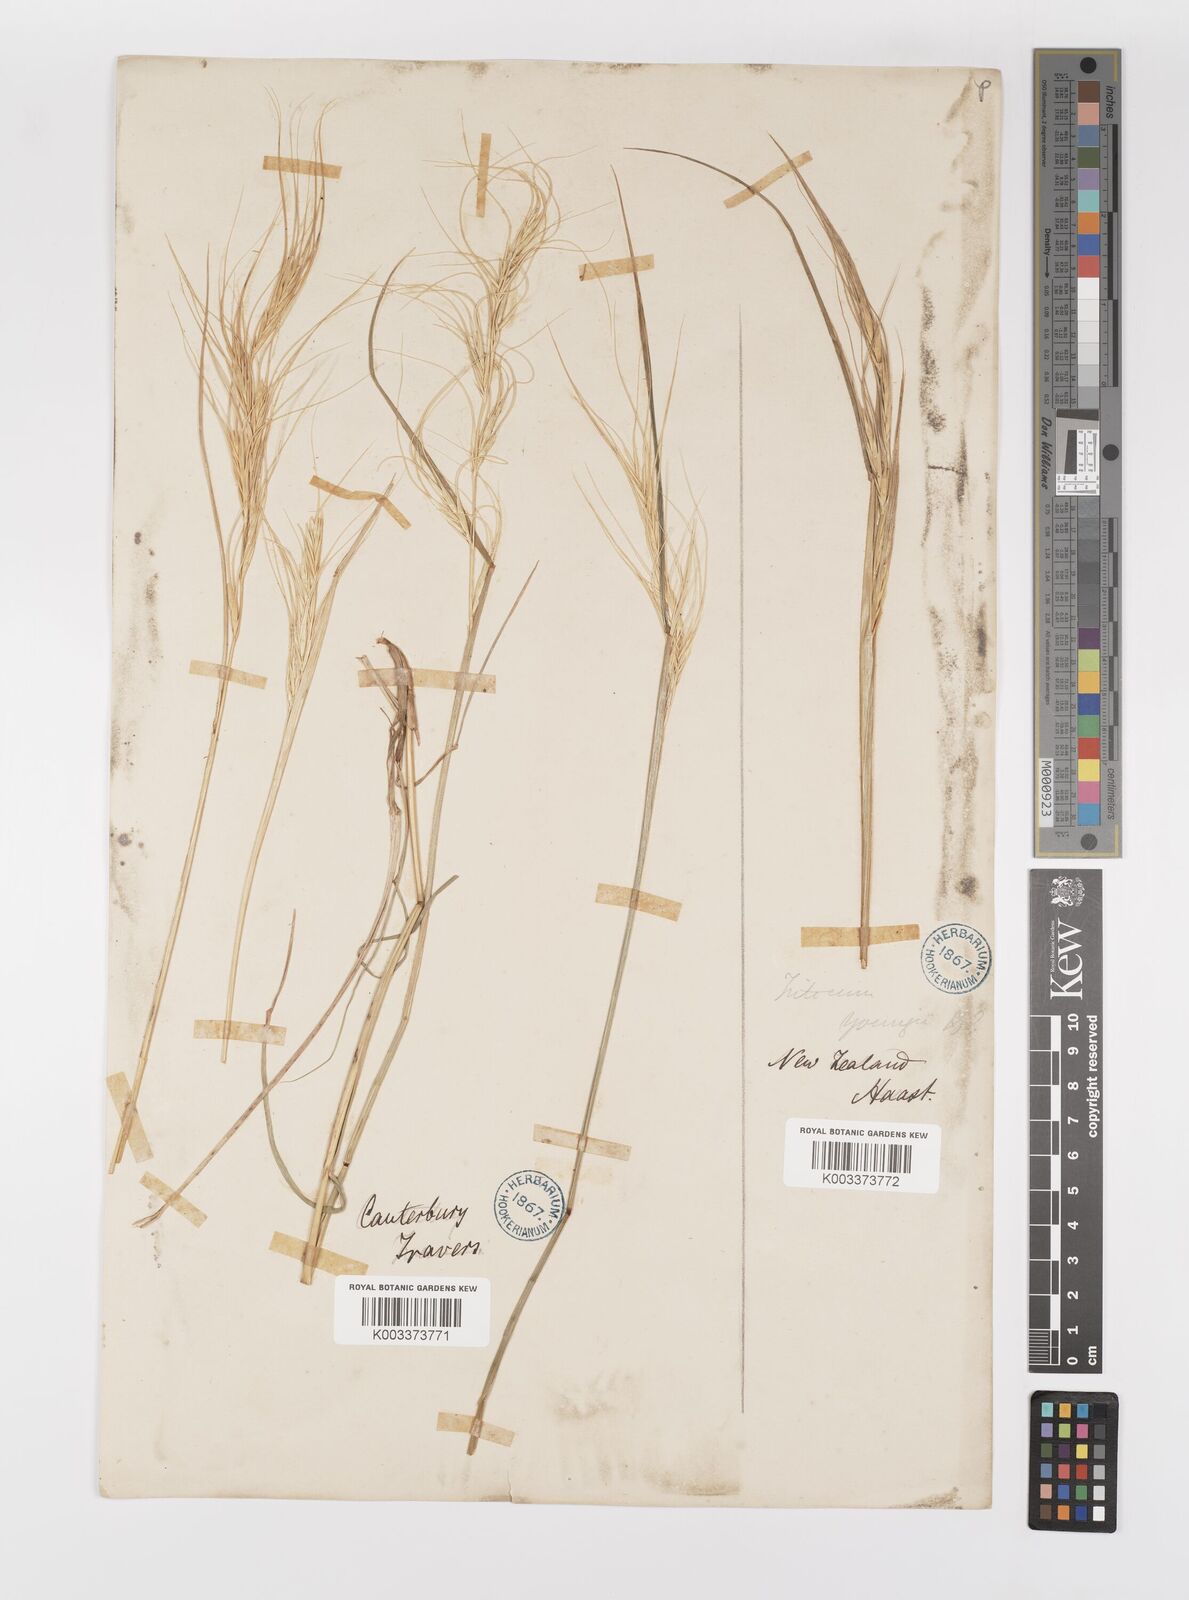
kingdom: Plantae
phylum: Tracheophyta
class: Liliopsida
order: Poales
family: Poaceae
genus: Anthosachne
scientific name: Anthosachne scabra
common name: Common wheatgrass
